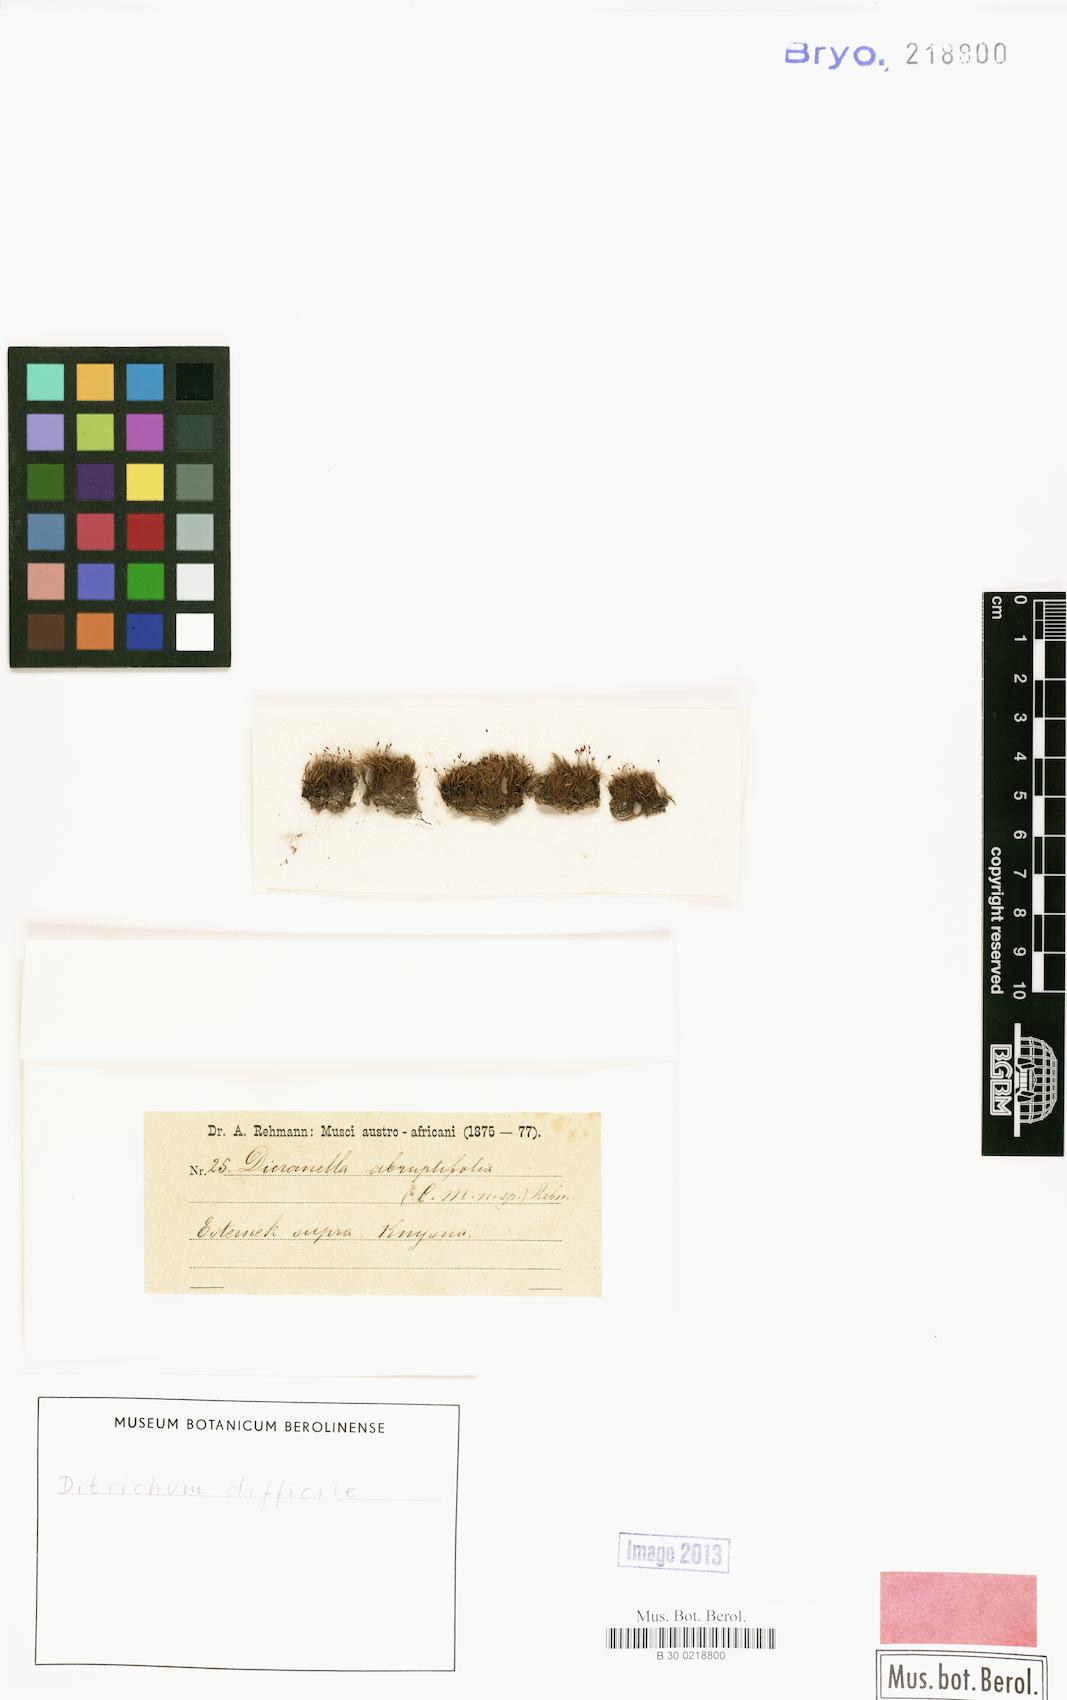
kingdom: Plantae
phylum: Bryophyta
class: Bryopsida
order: Dicranales
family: Ditrichaceae
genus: Ditrichum
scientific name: Ditrichum difficile
